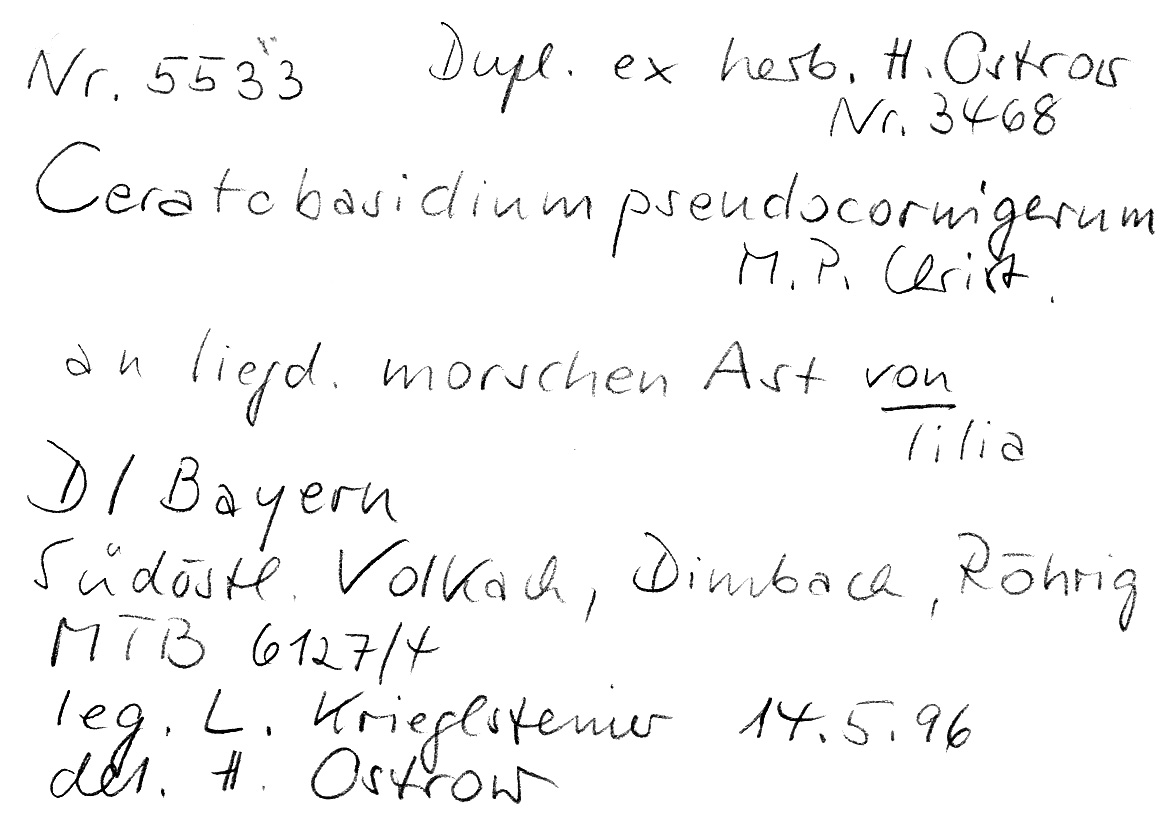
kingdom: Plantae
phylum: Tracheophyta
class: Magnoliopsida
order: Malvales
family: Malvaceae
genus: Tilia
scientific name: Tilia
